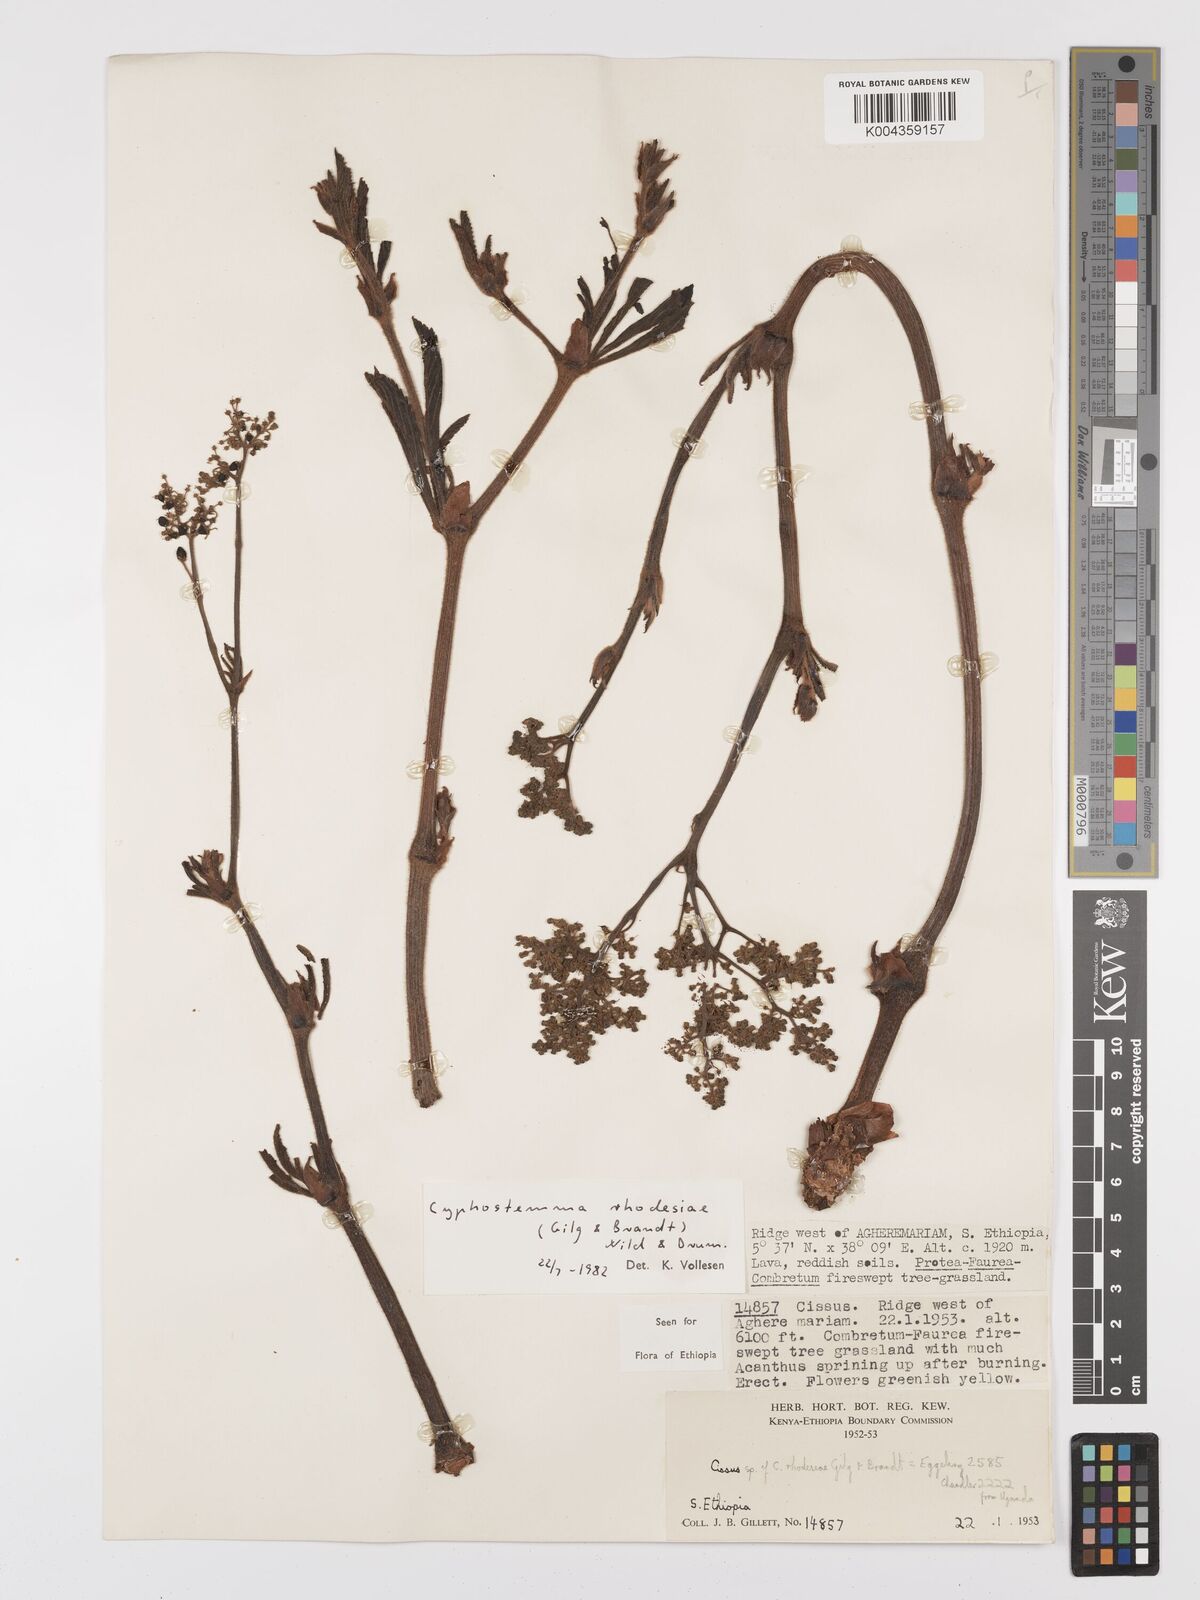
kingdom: Plantae
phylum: Tracheophyta
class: Magnoliopsida
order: Vitales
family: Vitaceae
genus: Cyphostemma
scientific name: Cyphostemma rhodesiae
